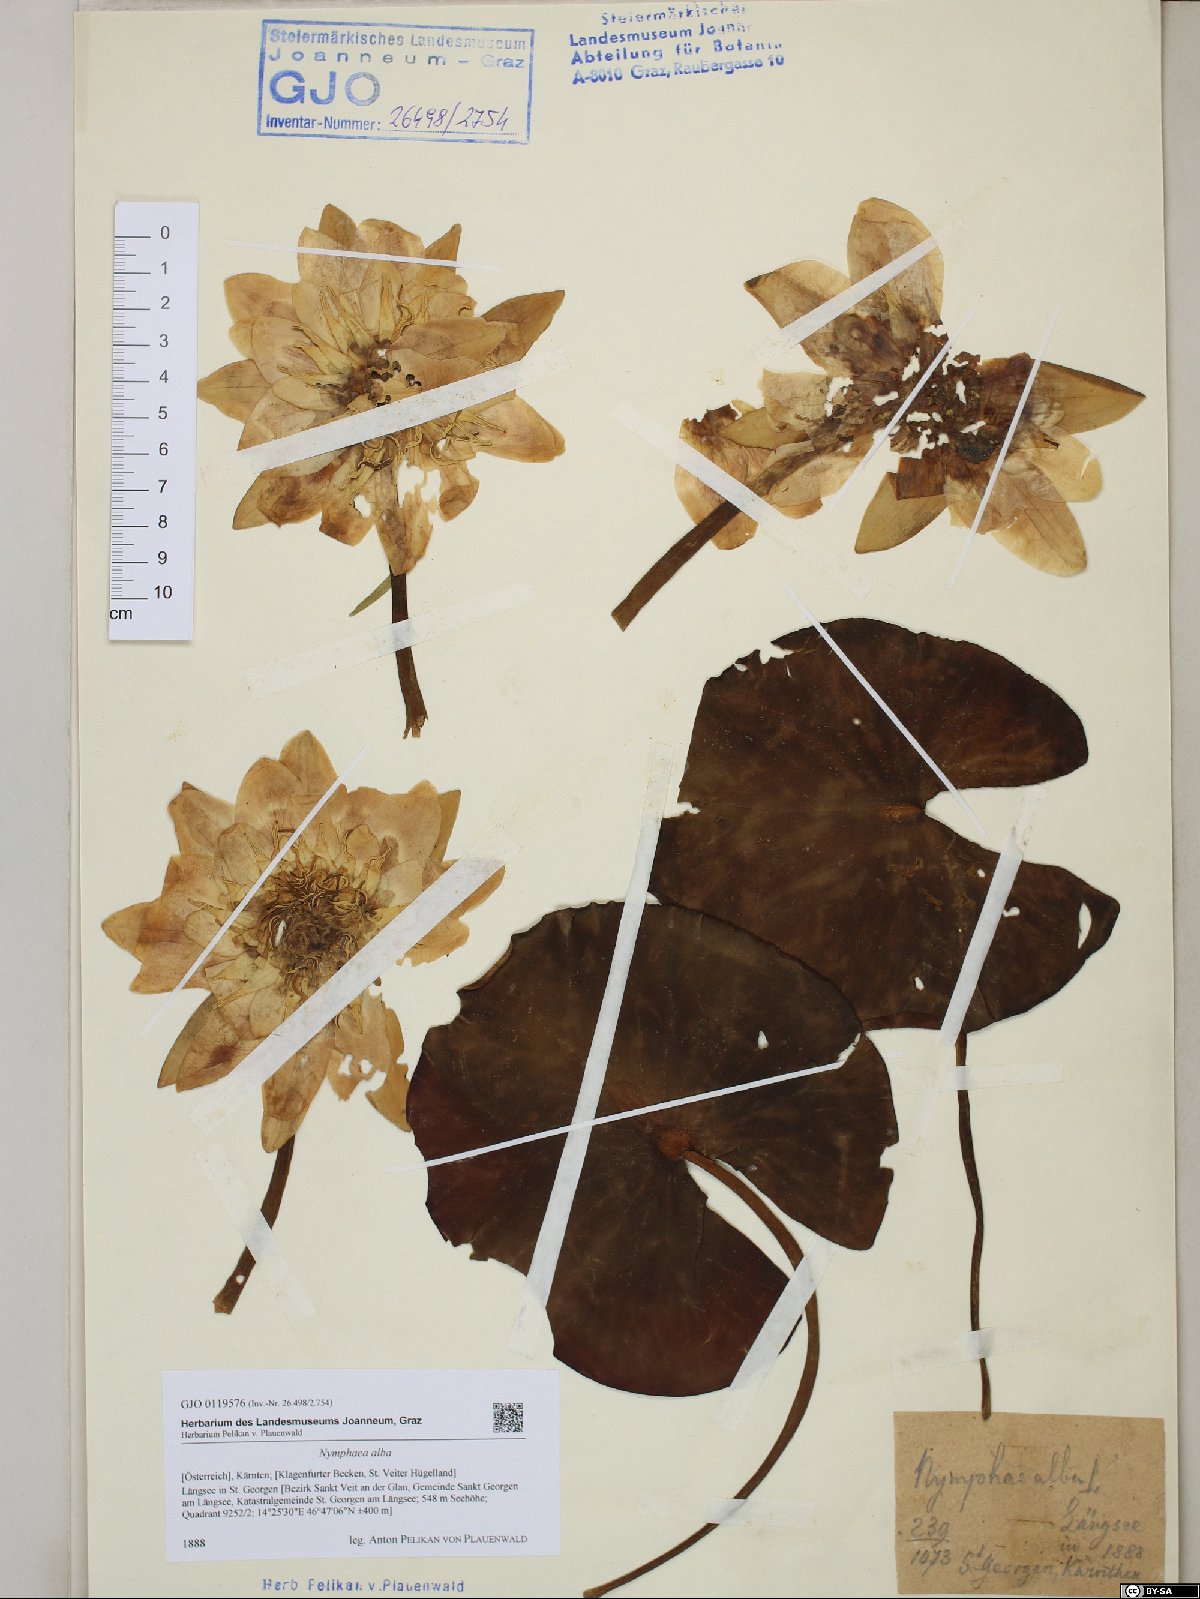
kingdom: Plantae
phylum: Tracheophyta
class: Magnoliopsida
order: Nymphaeales
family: Nymphaeaceae
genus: Nymphaea
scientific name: Nymphaea alba
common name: White water-lily
